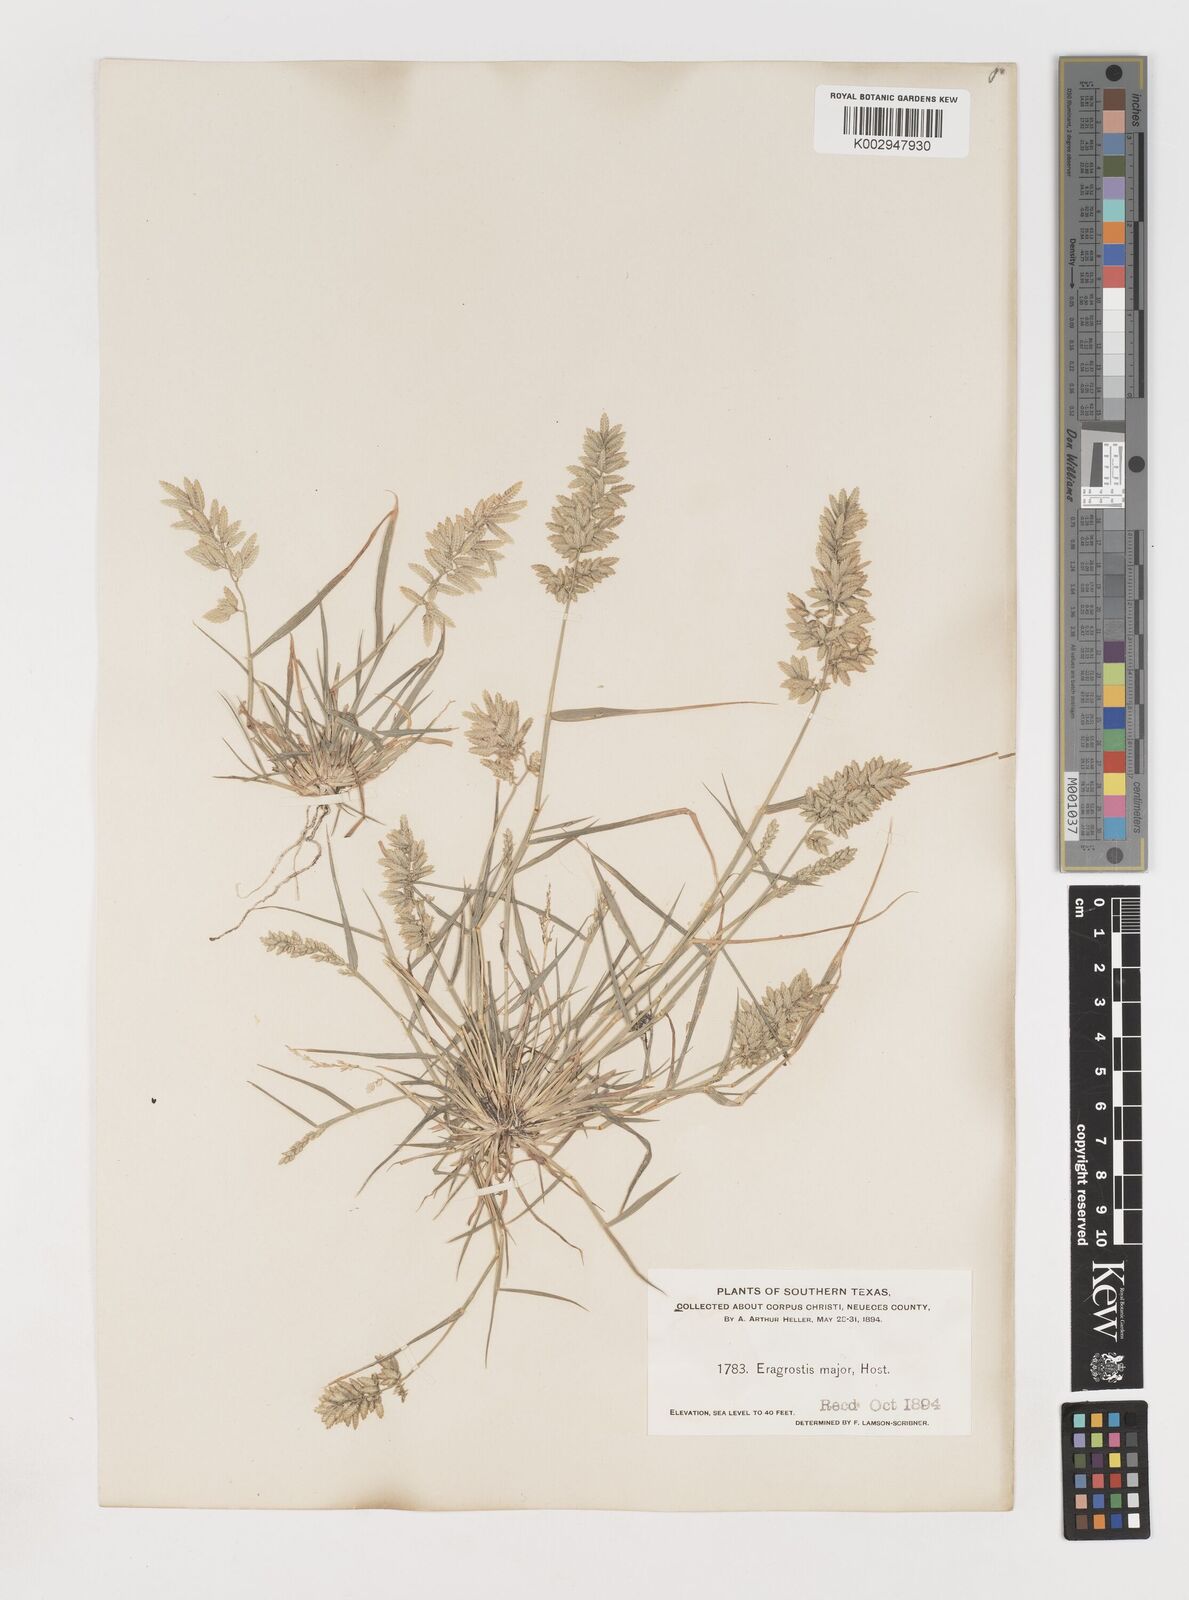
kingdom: Plantae
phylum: Tracheophyta
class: Liliopsida
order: Poales
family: Poaceae
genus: Eragrostis
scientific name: Eragrostis
